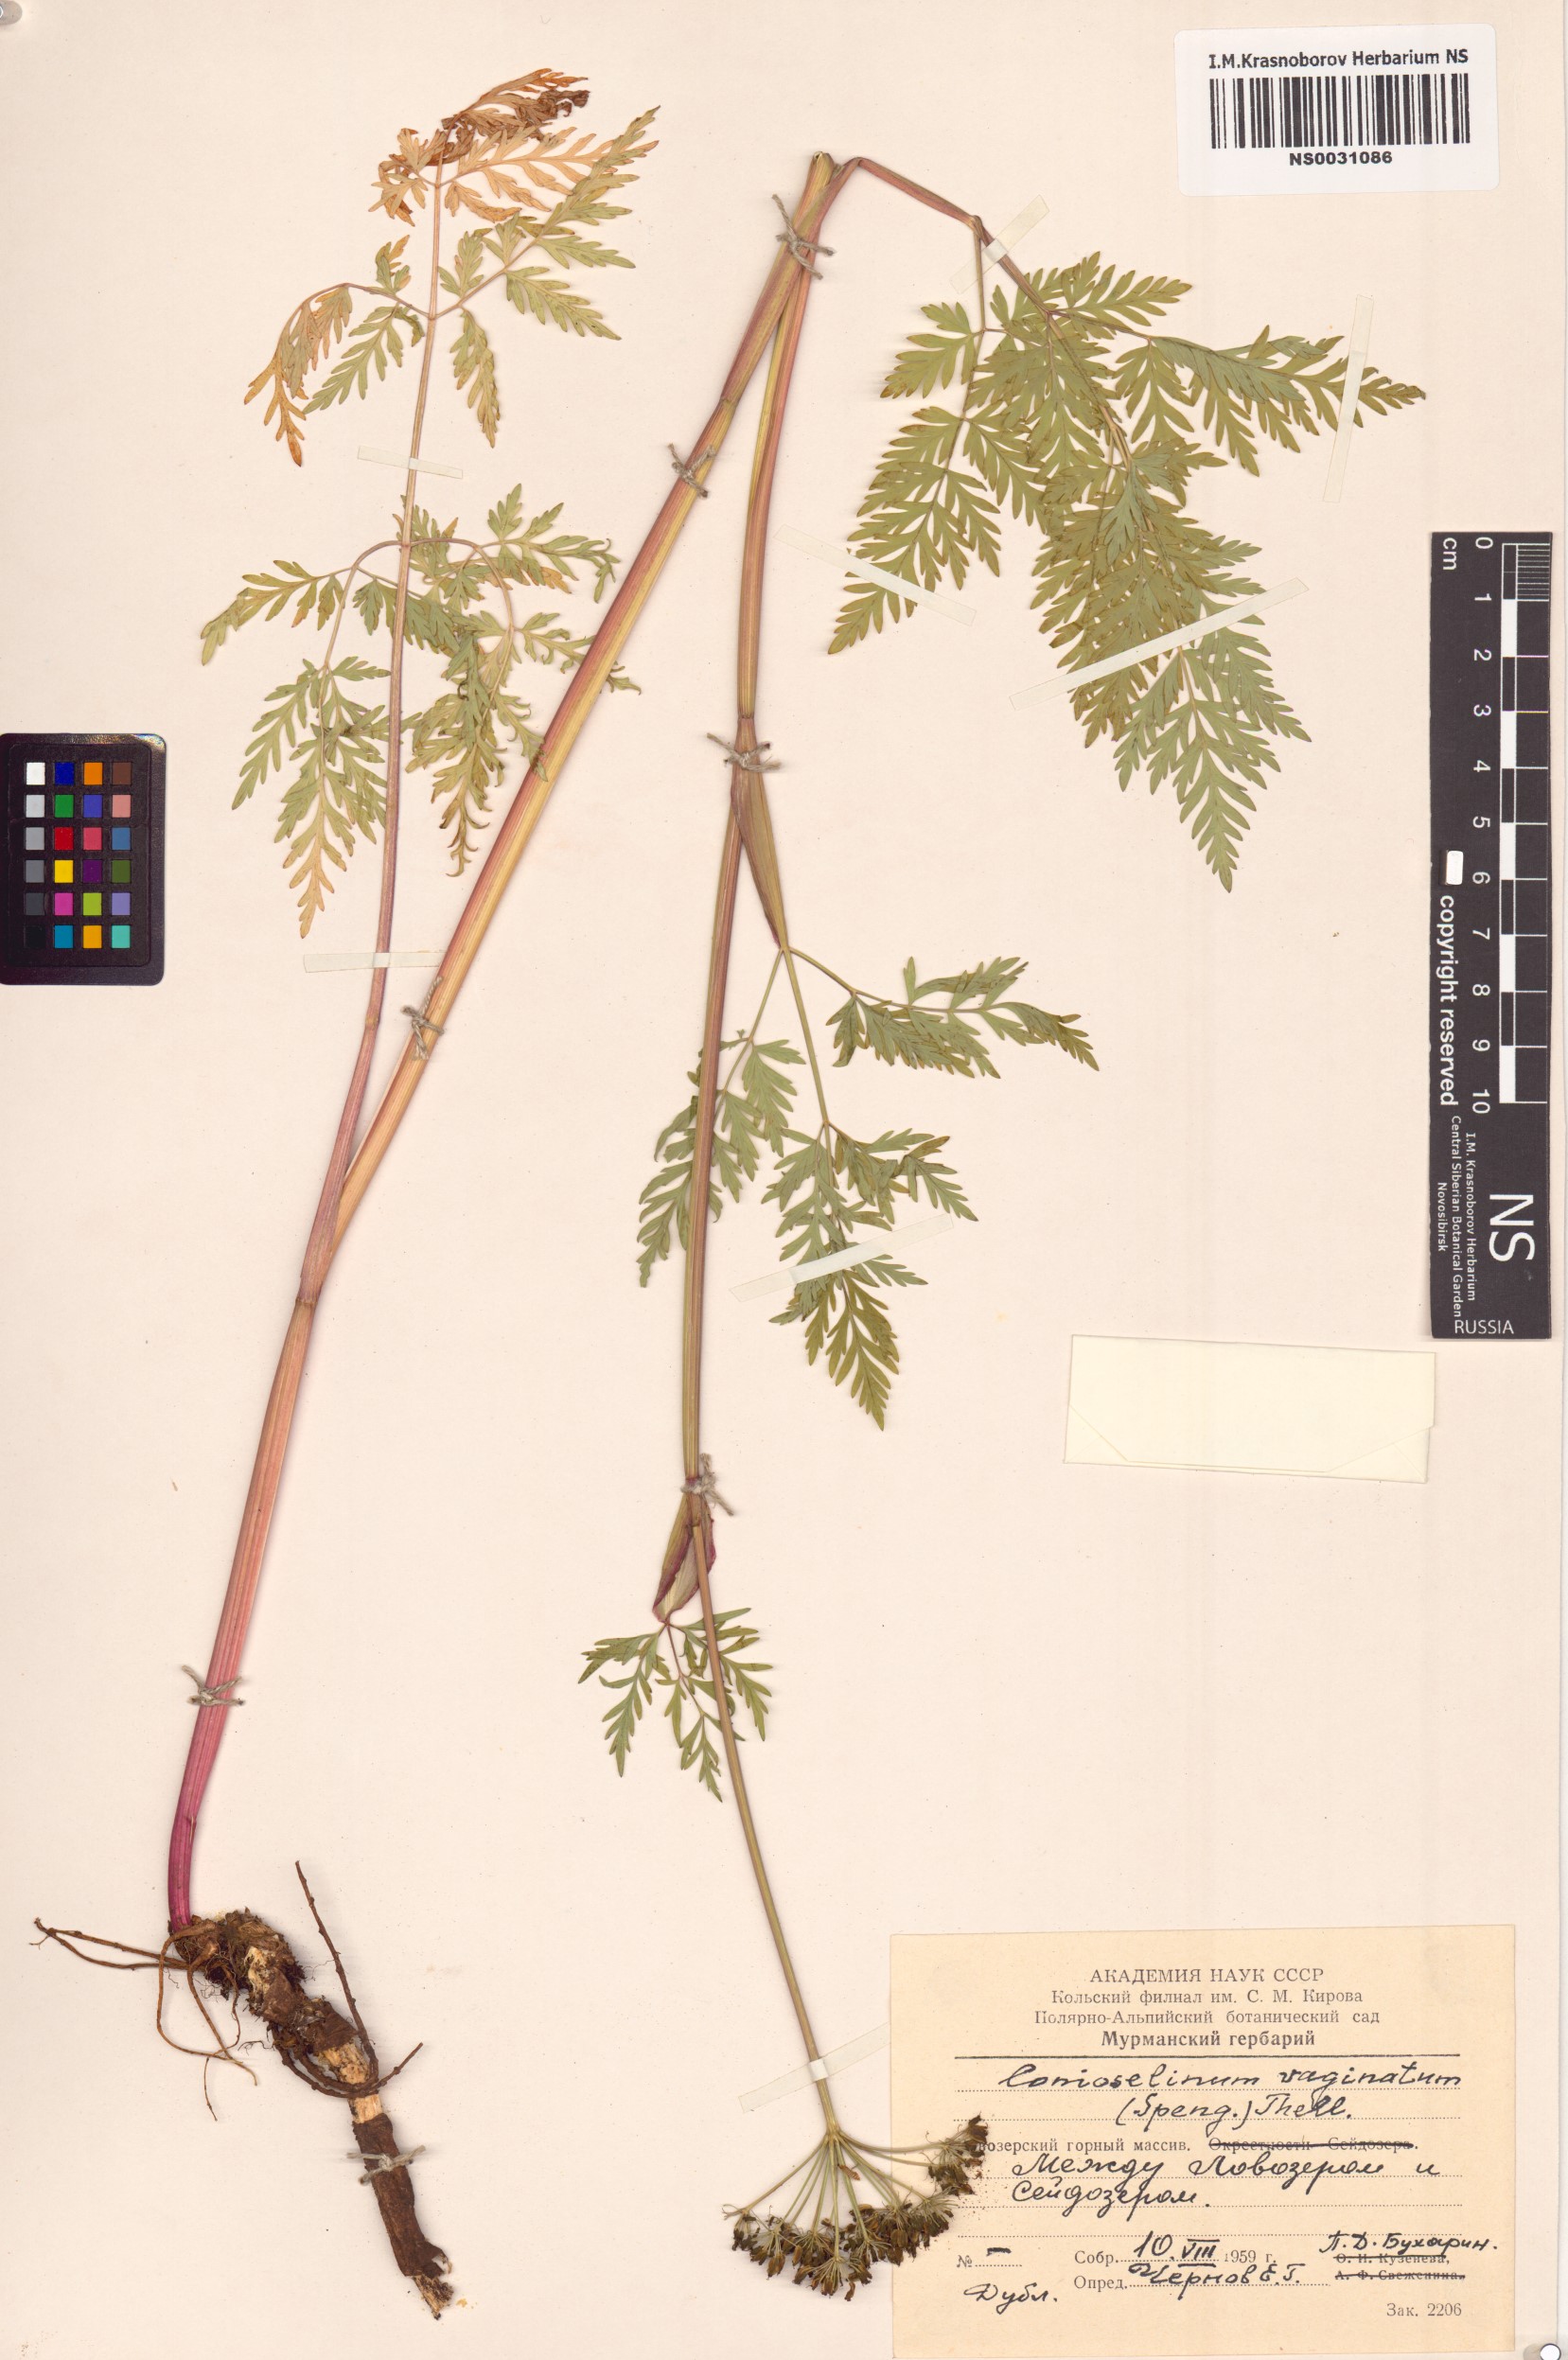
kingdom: Plantae
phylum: Tracheophyta
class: Magnoliopsida
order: Apiales
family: Apiaceae
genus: Seseli
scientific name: Seseli condensatum
